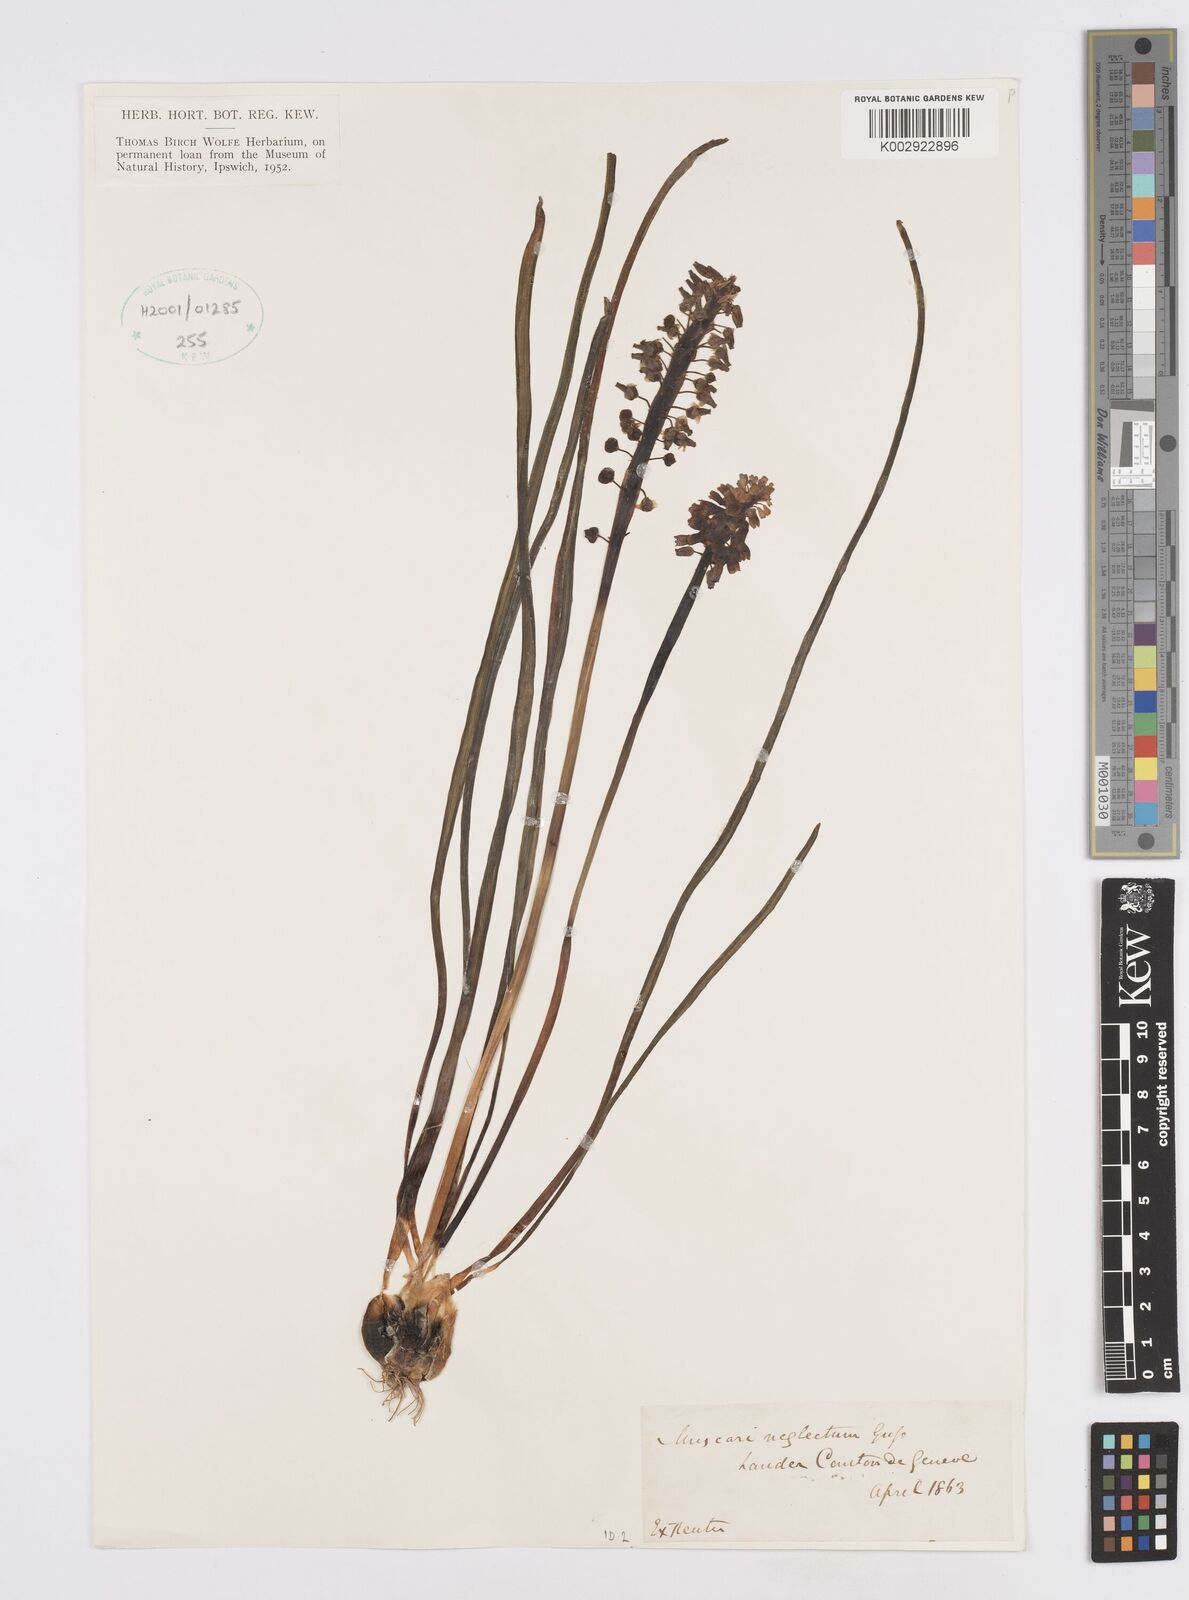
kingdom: Plantae
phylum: Tracheophyta
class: Liliopsida
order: Asparagales
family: Asparagaceae
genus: Muscarimia
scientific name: Muscarimia muscari
